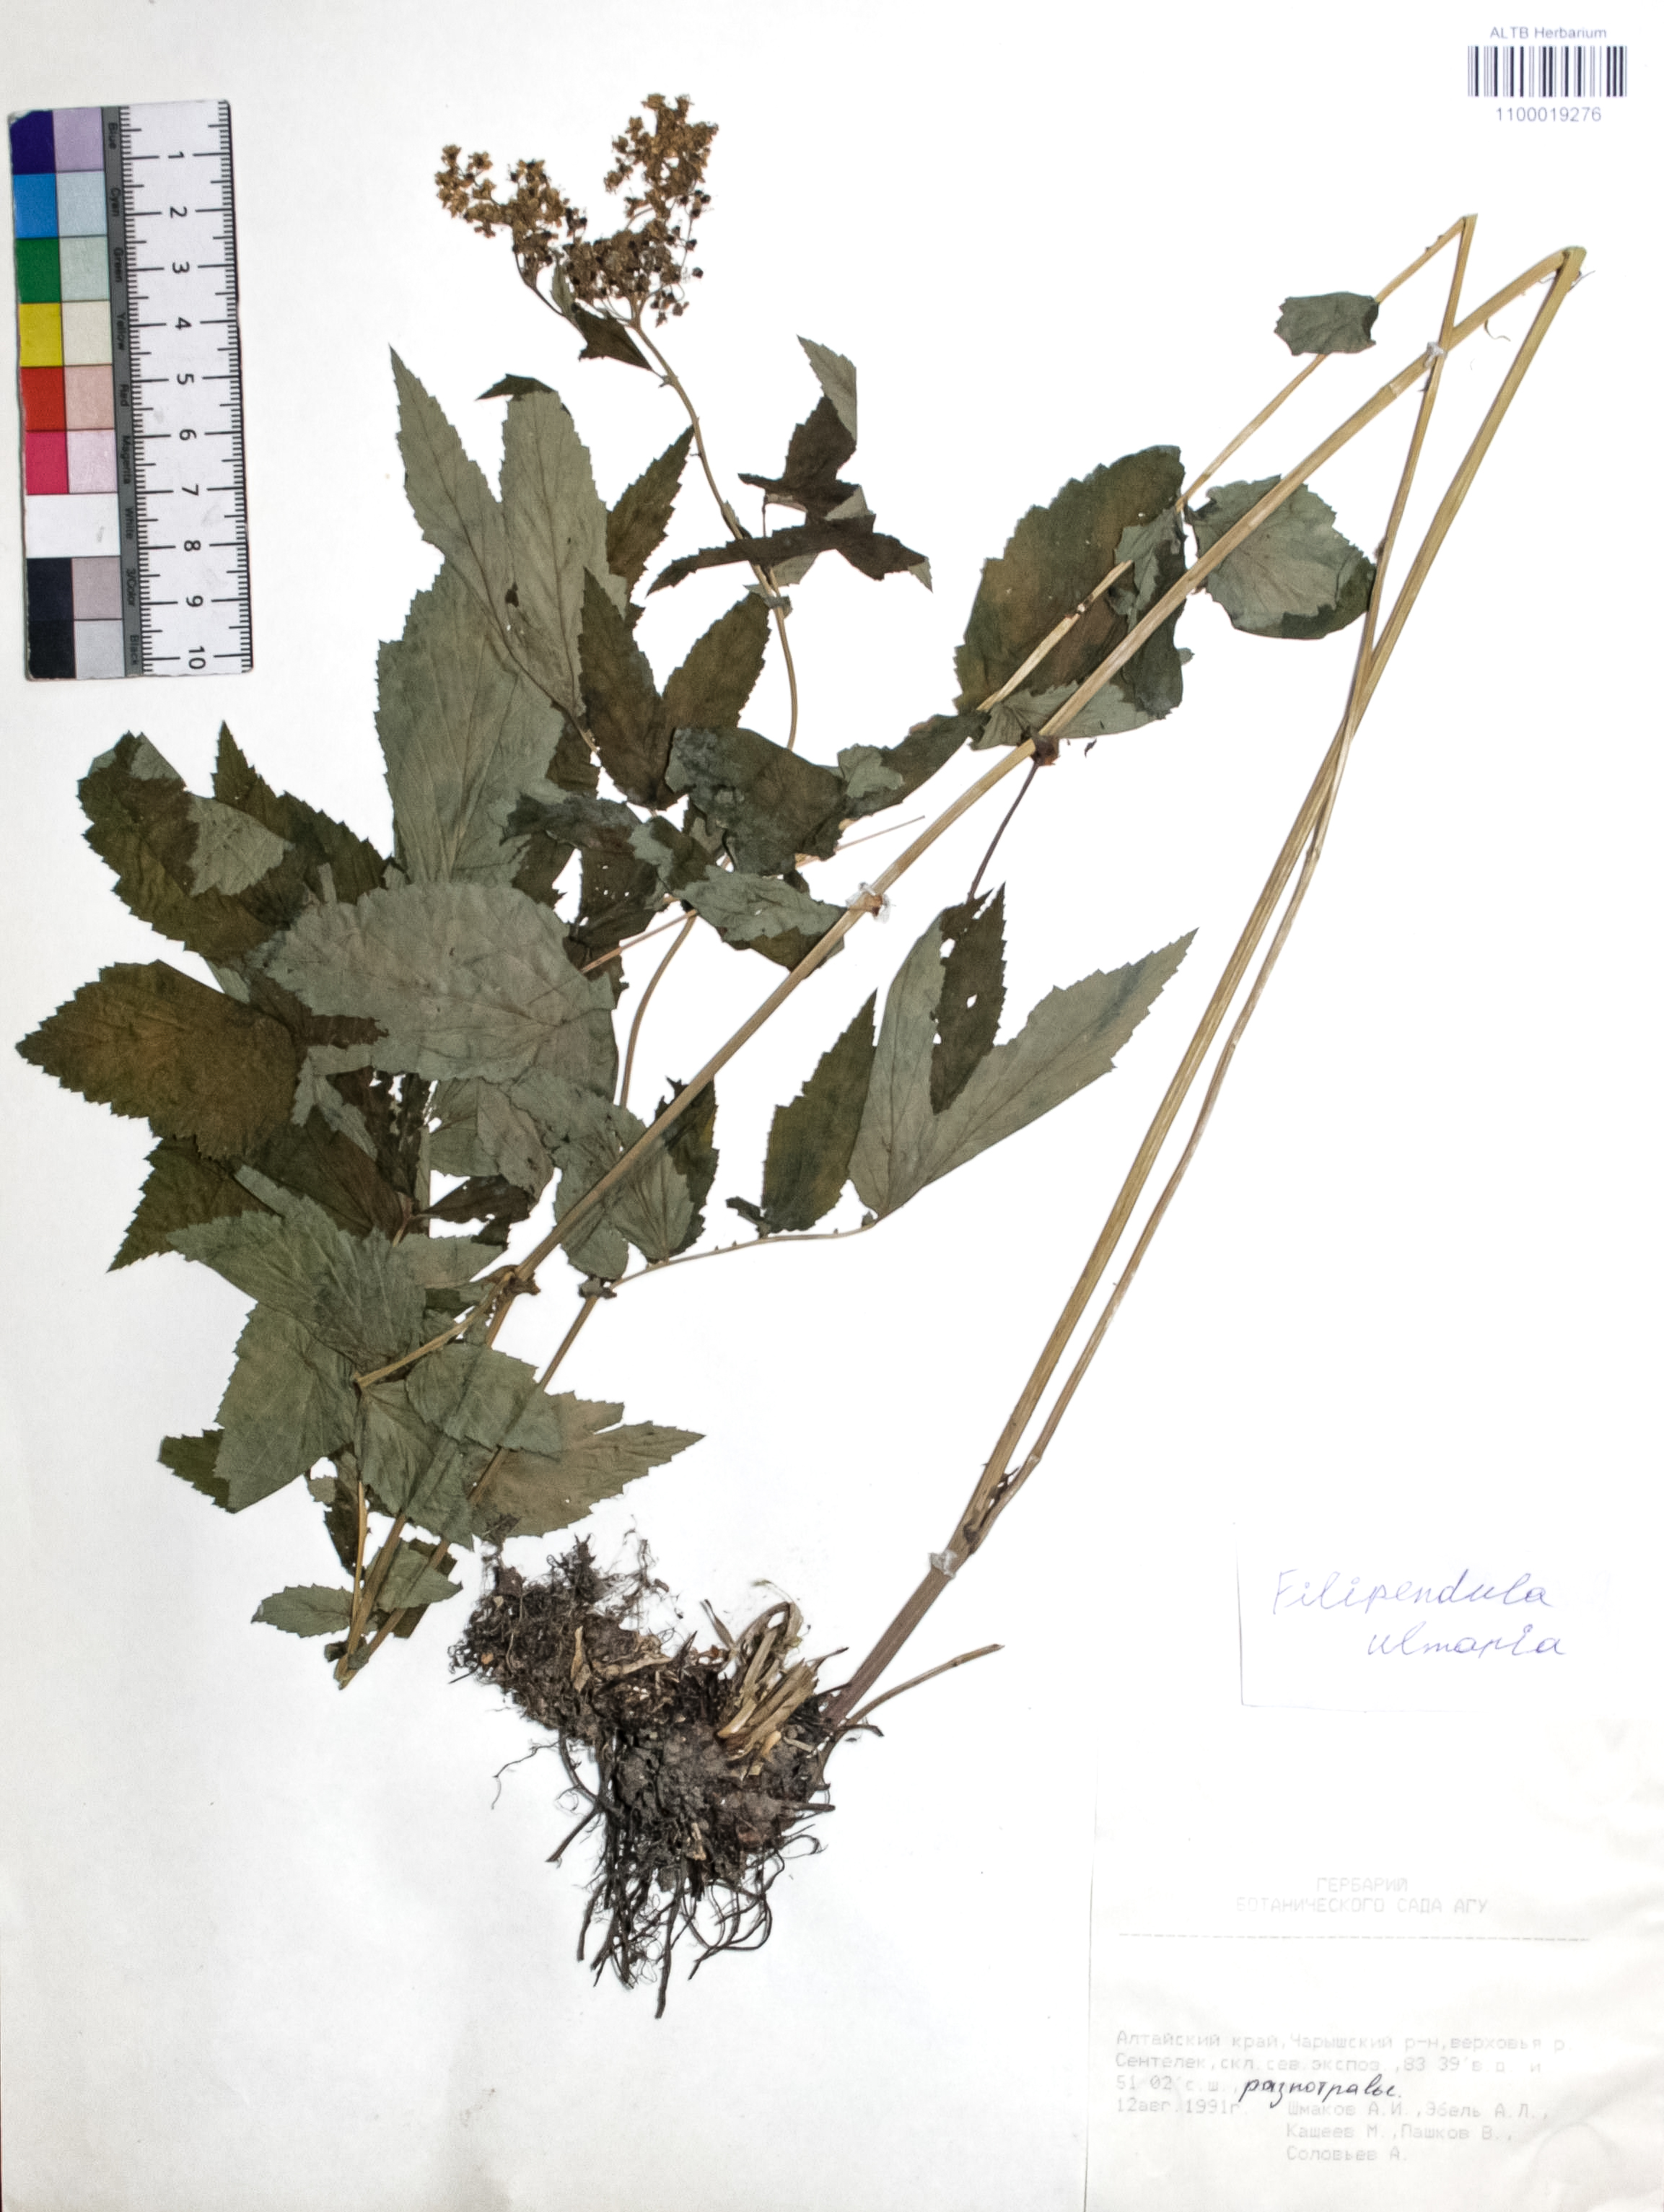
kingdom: Plantae
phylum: Tracheophyta
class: Magnoliopsida
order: Rosales
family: Rosaceae
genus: Filipendula
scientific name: Filipendula ulmaria
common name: Meadowsweet
